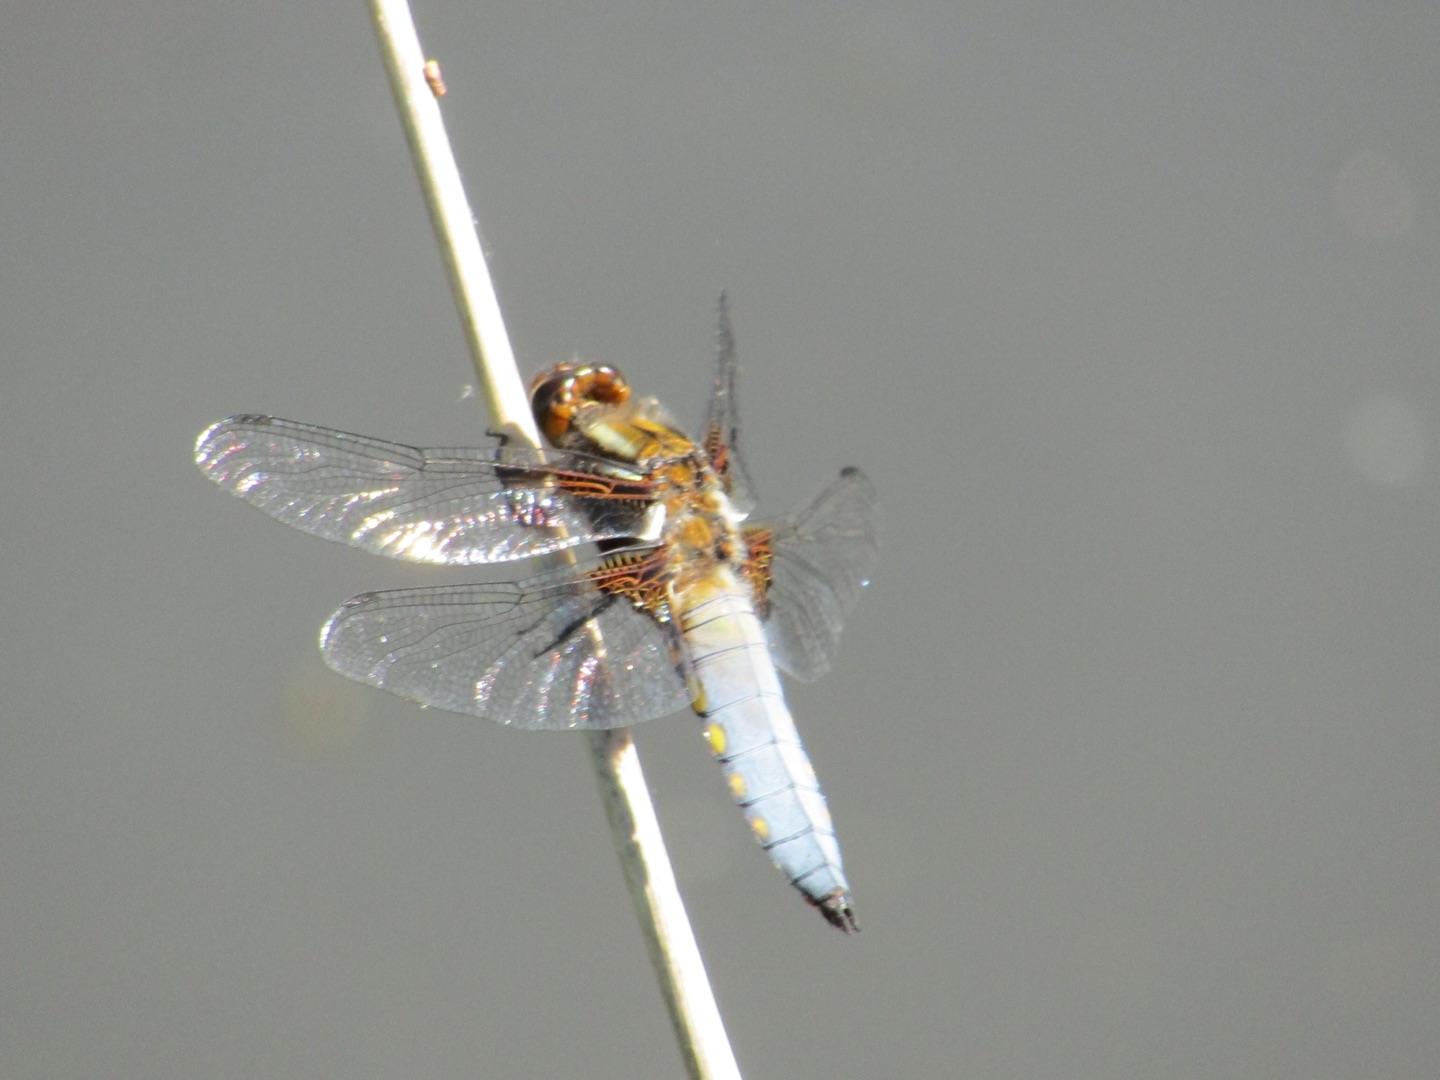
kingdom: Animalia
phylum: Arthropoda
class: Insecta
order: Odonata
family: Libellulidae
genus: Libellula
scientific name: Libellula depressa
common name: Blå libel
